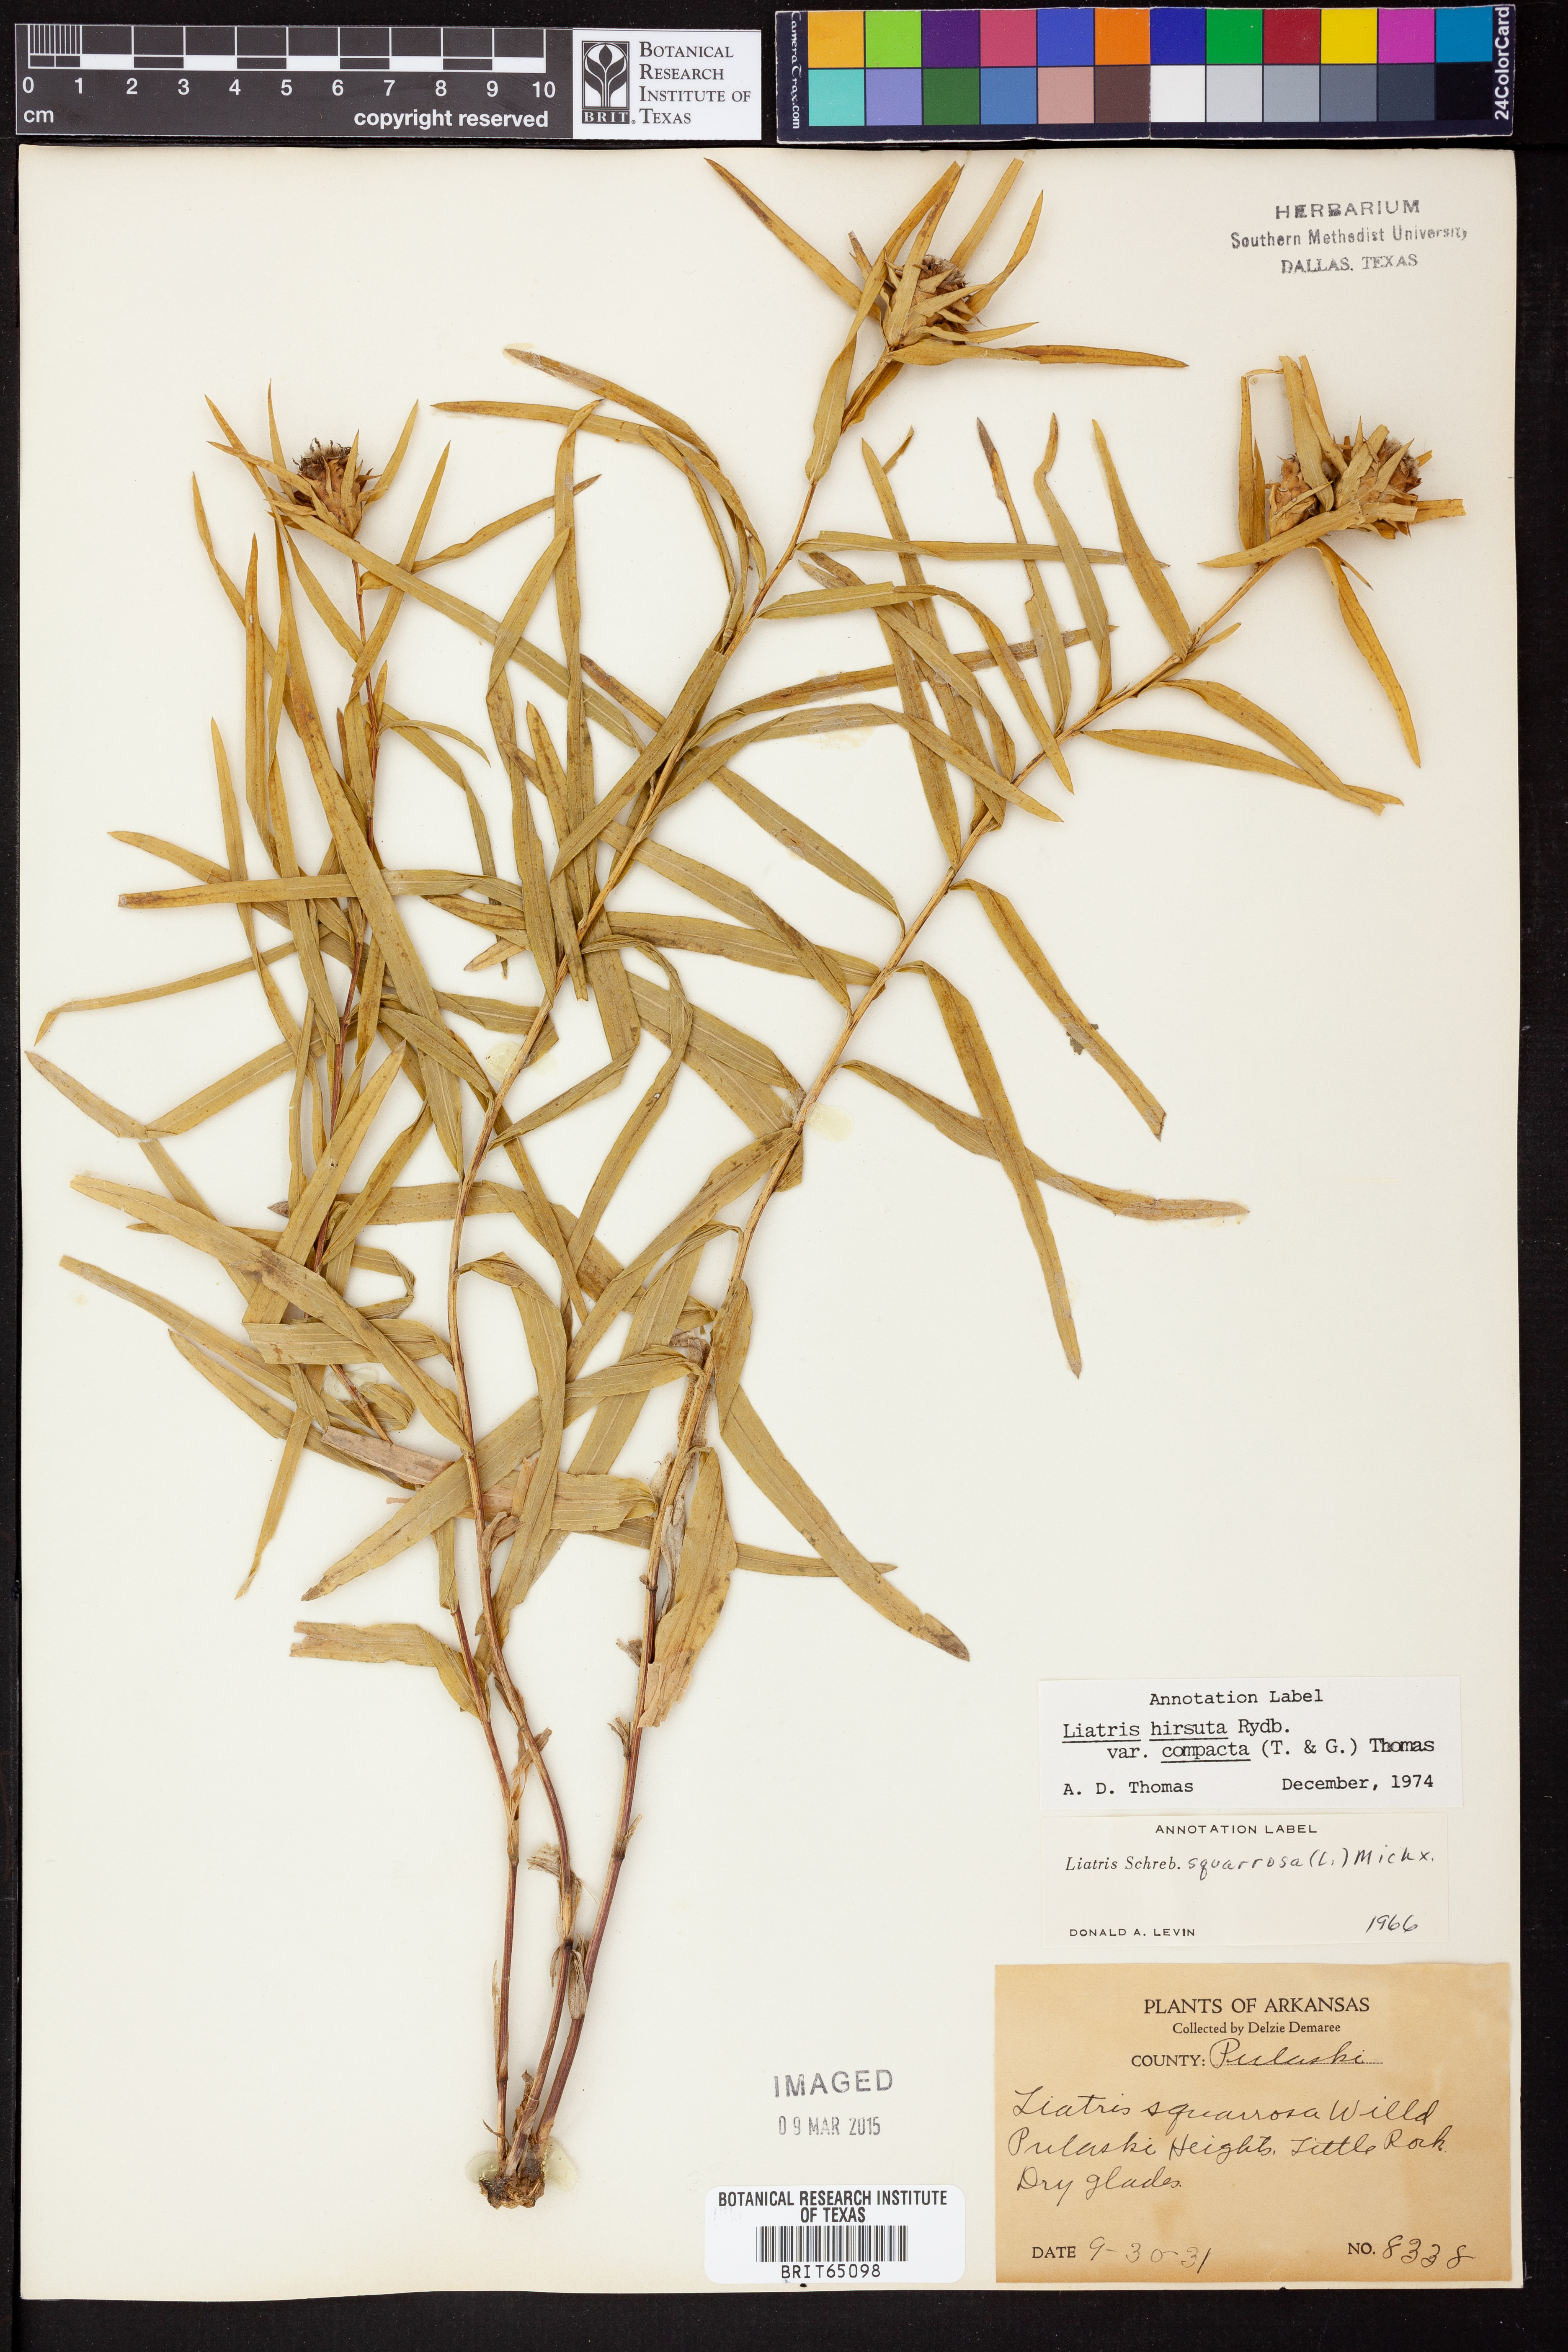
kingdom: Plantae
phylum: Tracheophyta
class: Magnoliopsida
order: Asterales
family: Asteraceae
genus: Liatris
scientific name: Liatris compacta
